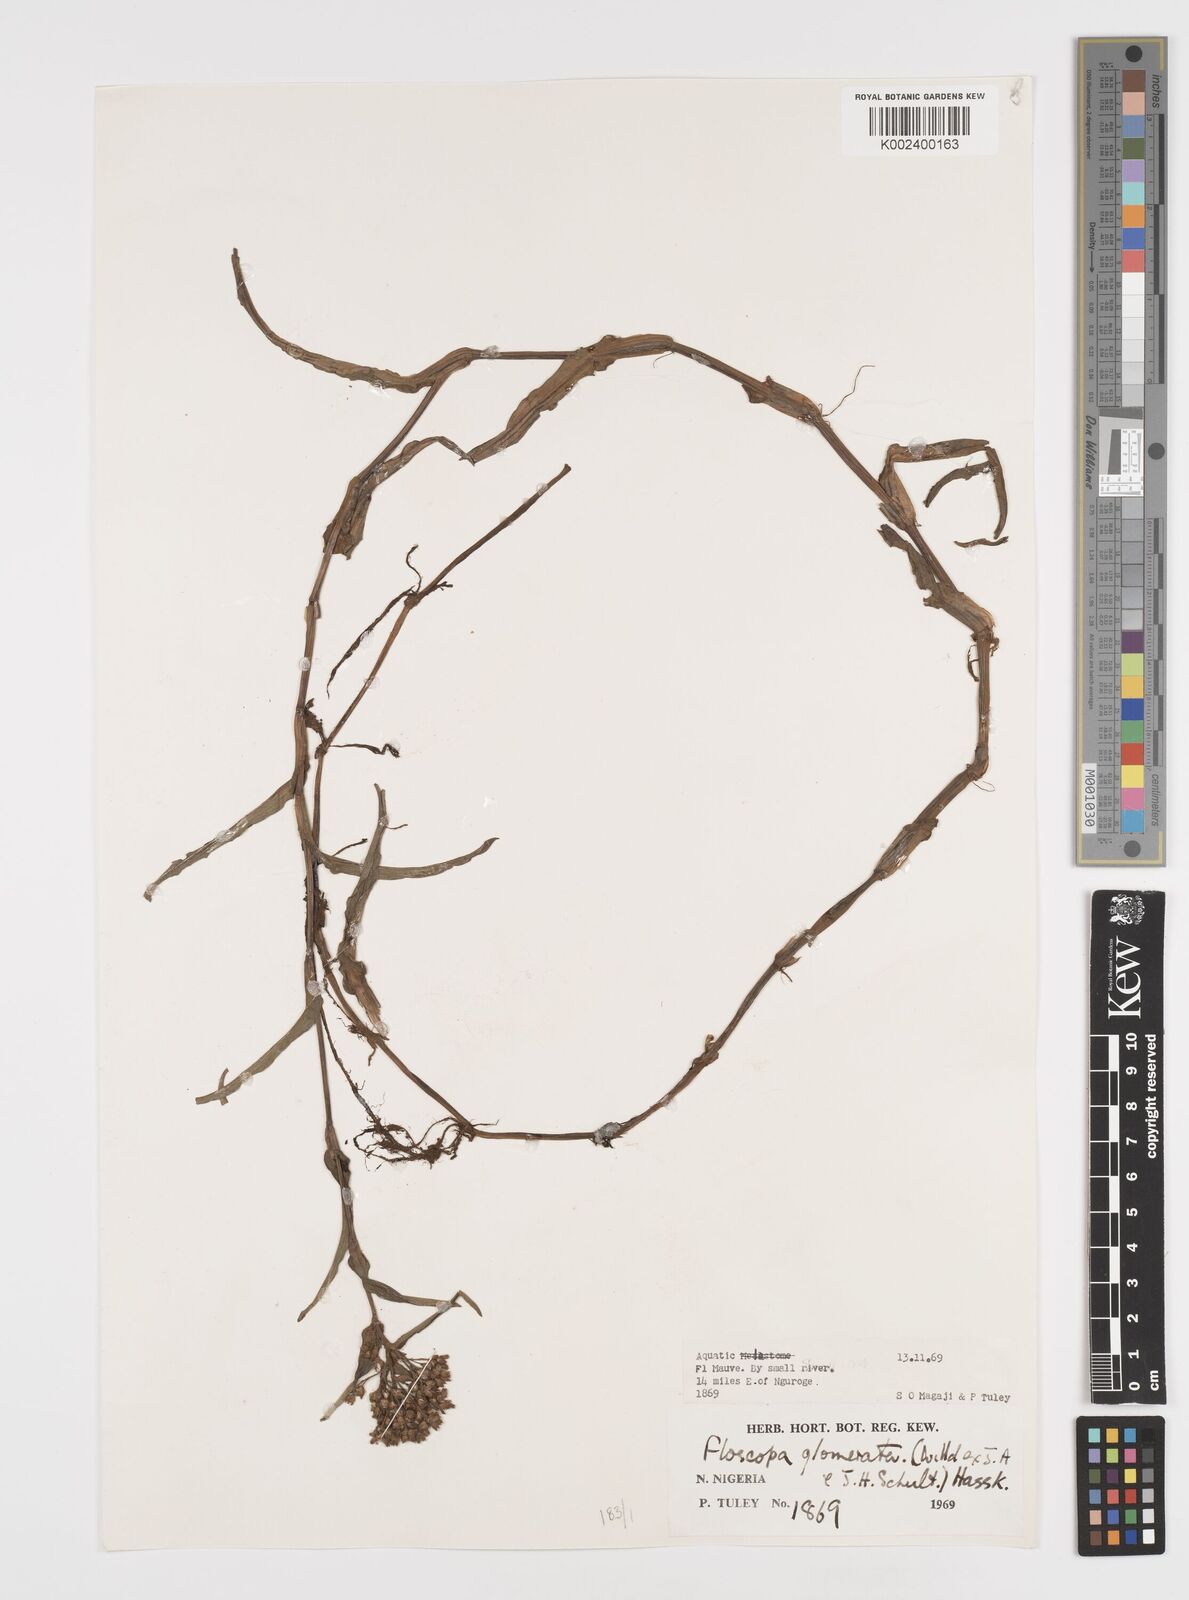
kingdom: Plantae
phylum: Tracheophyta
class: Liliopsida
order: Commelinales
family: Commelinaceae
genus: Floscopa
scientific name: Floscopa glomerata
